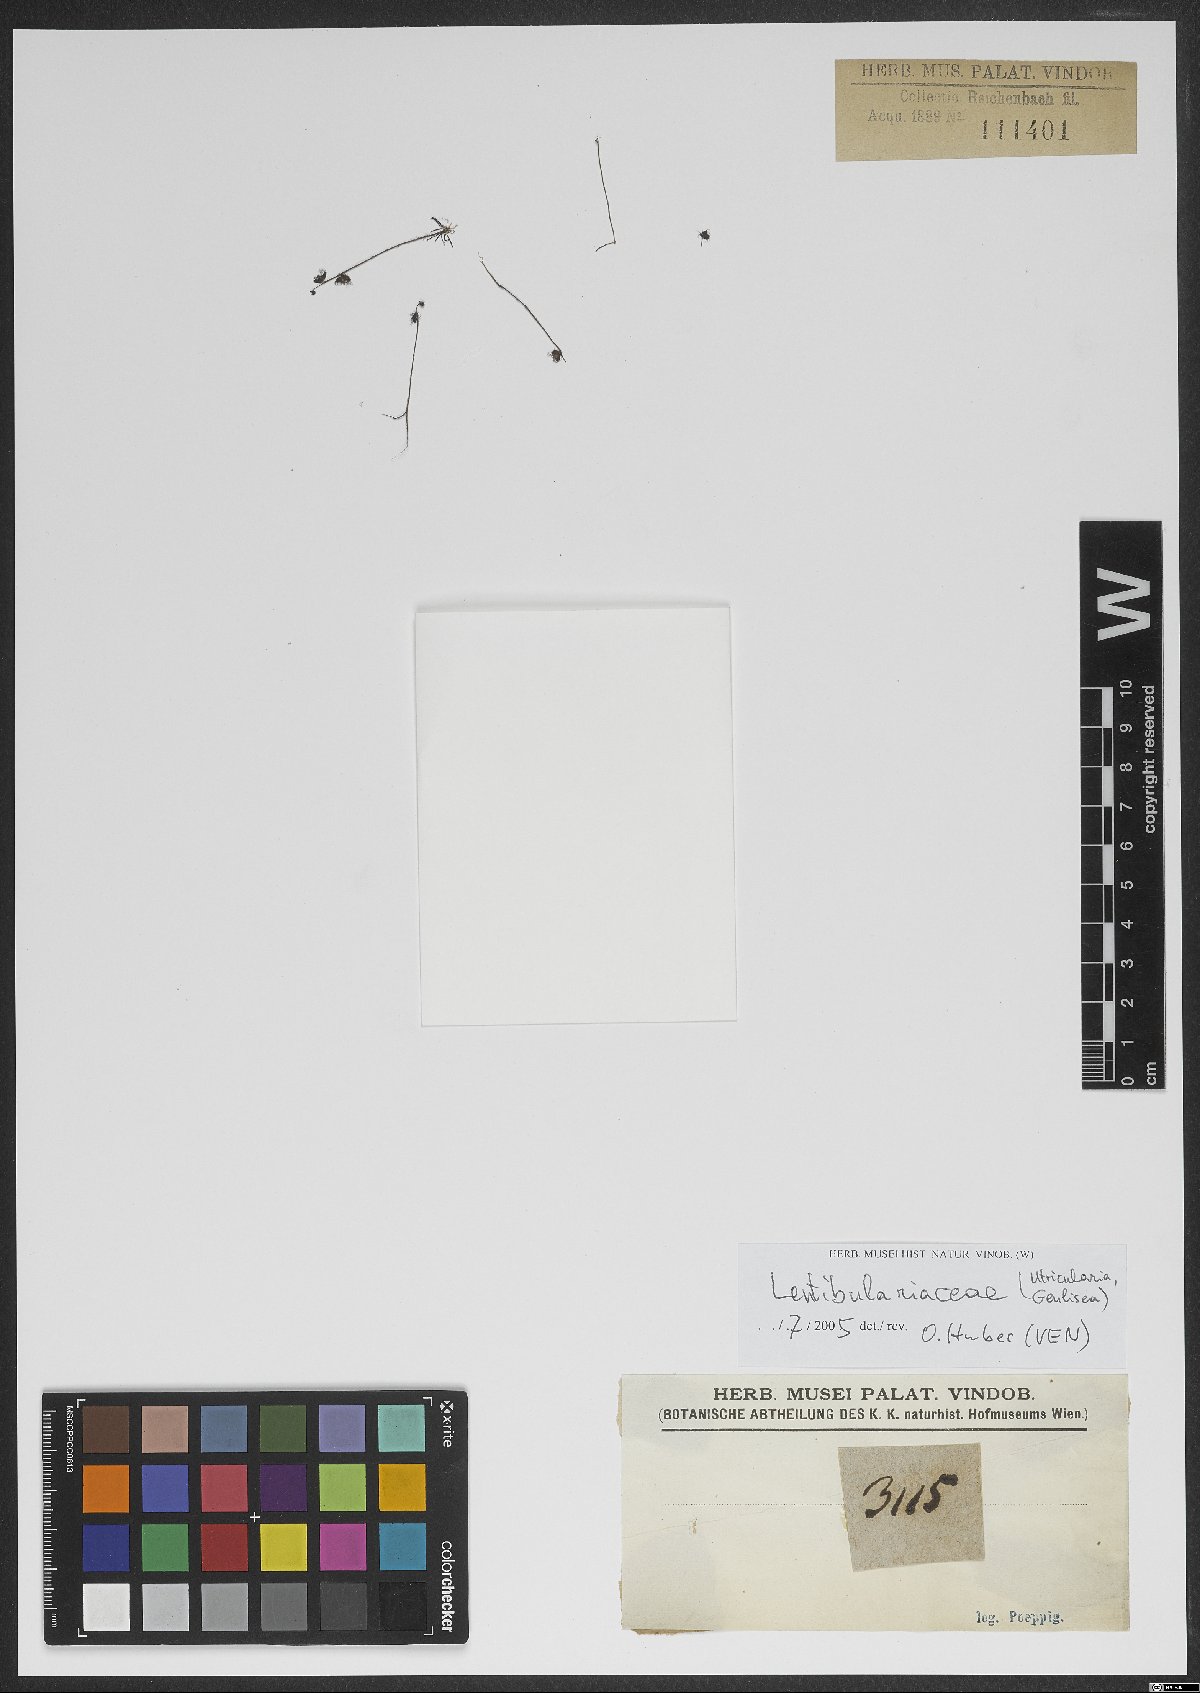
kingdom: Plantae
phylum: Tracheophyta
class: Magnoliopsida
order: Lamiales
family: Lentibulariaceae
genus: Utricularia
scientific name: Utricularia
